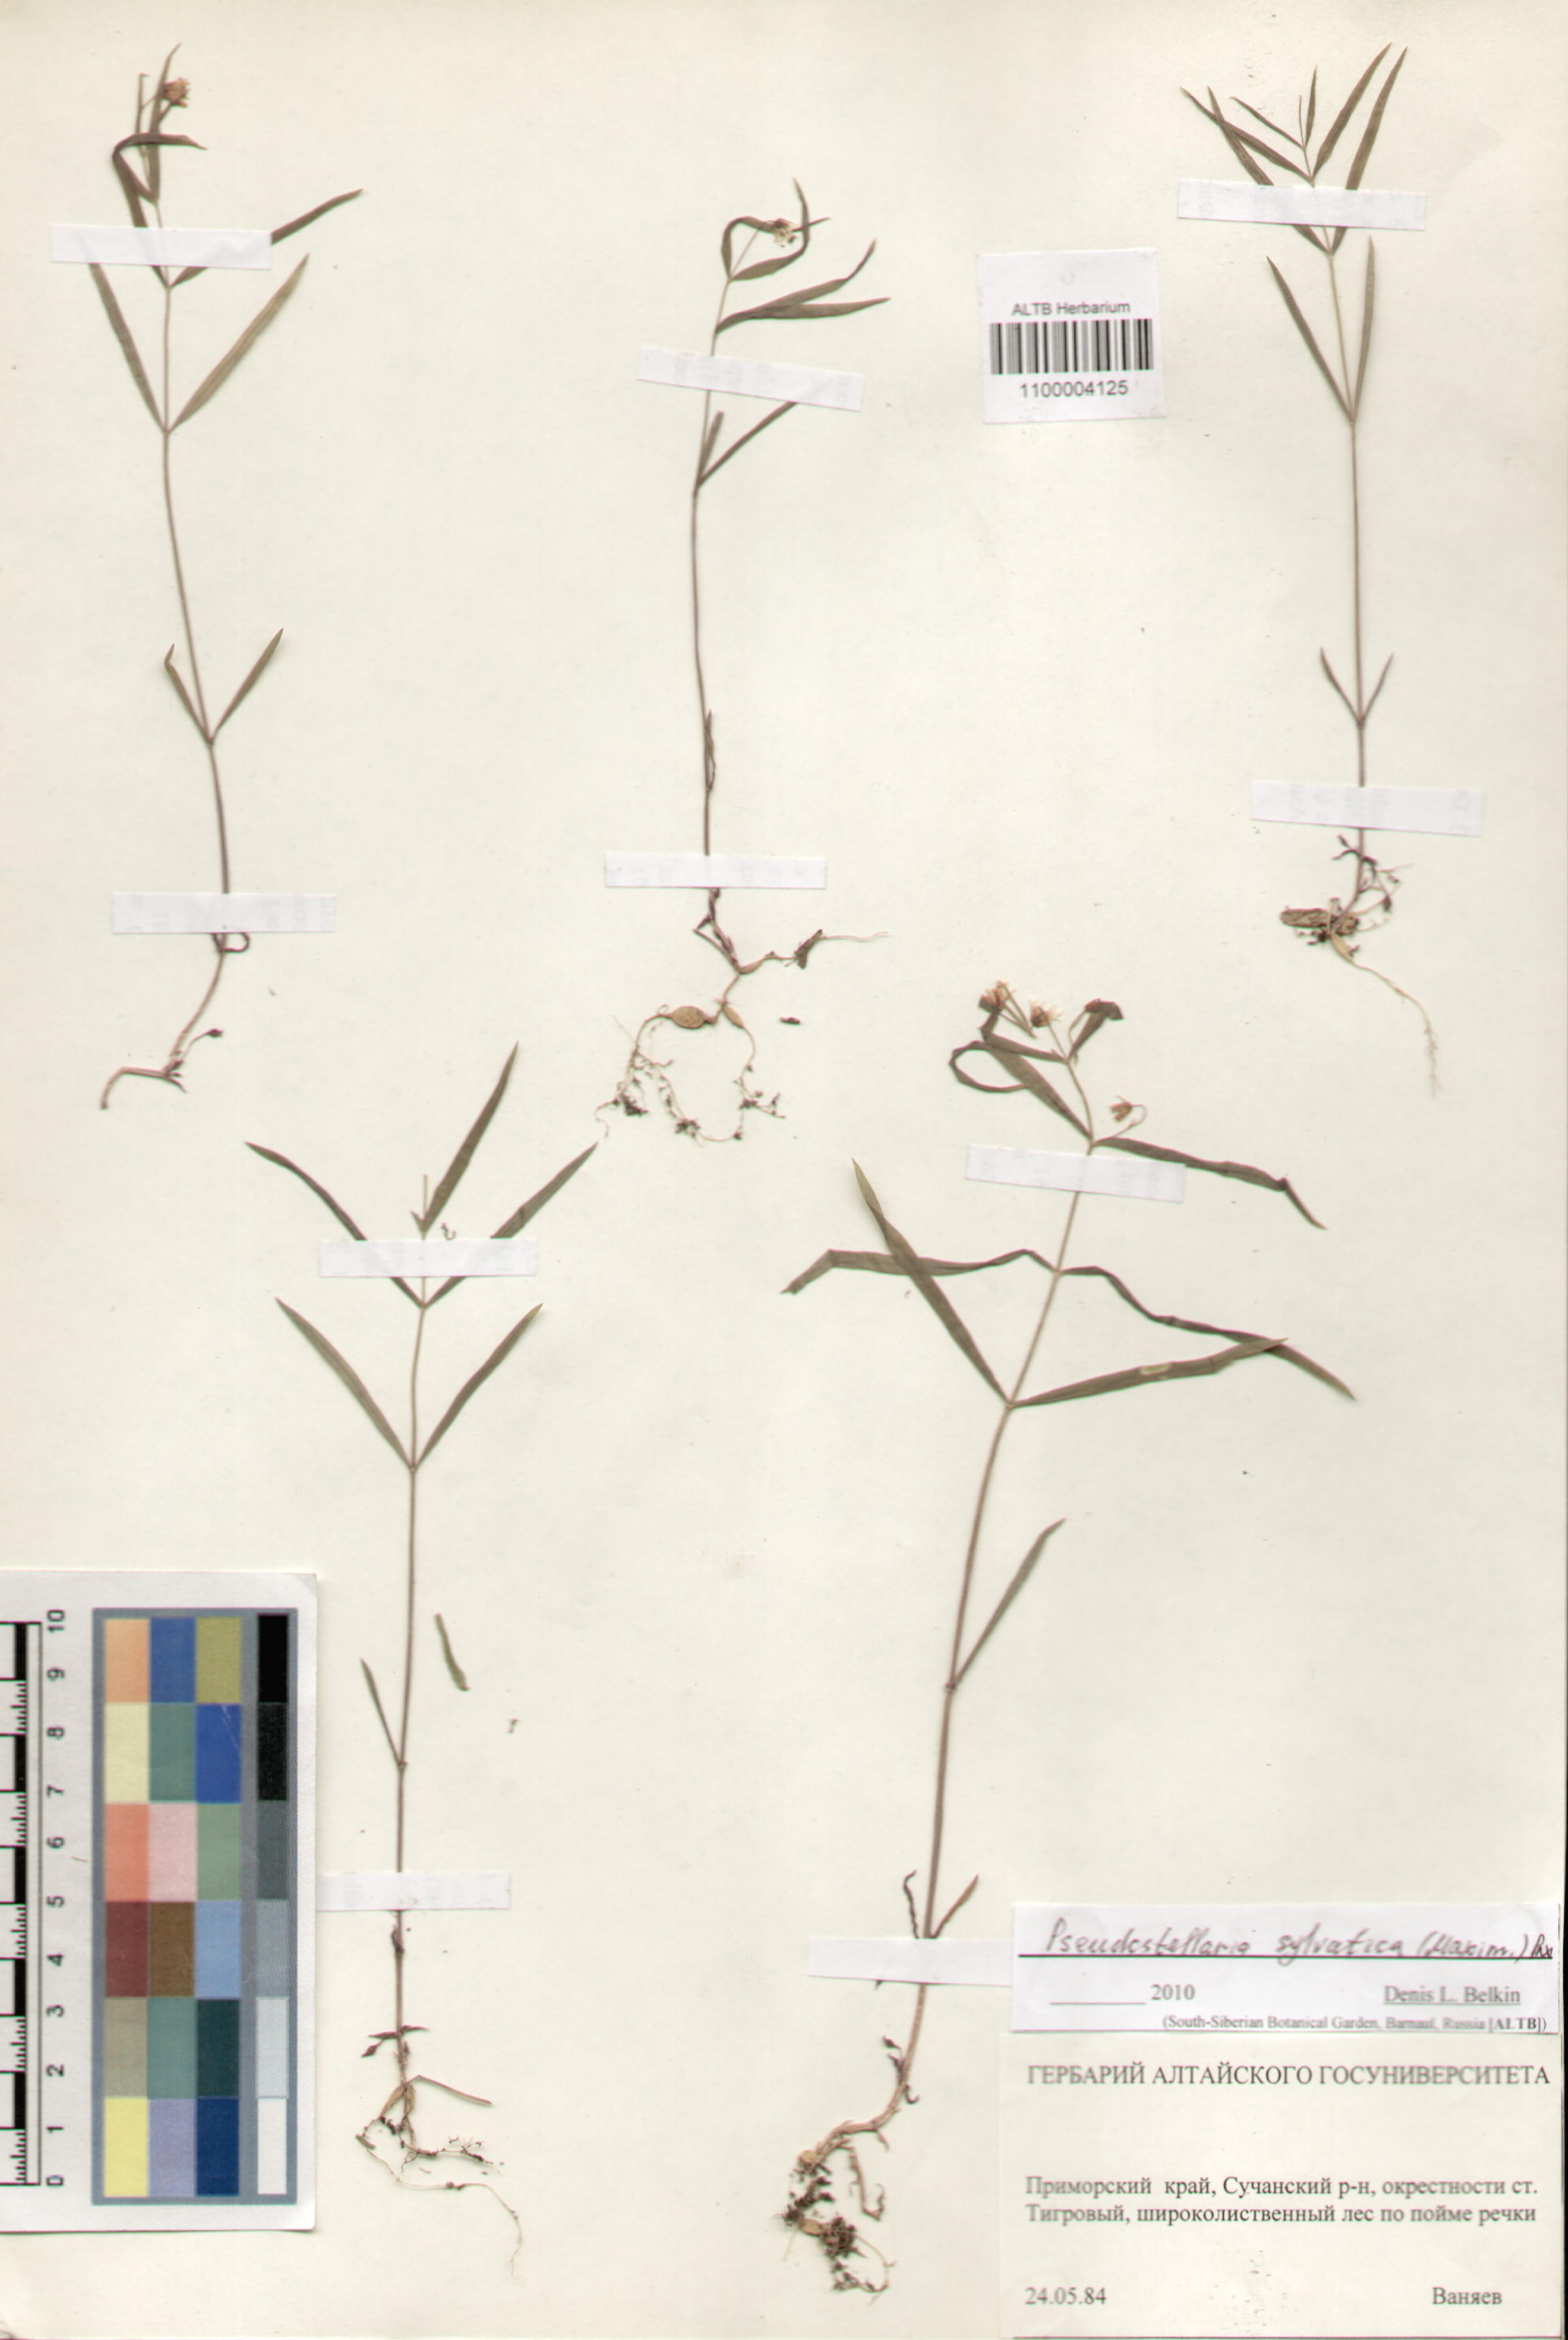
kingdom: Plantae
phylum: Tracheophyta
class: Magnoliopsida
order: Caryophyllales
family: Caryophyllaceae
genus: Pseudostellaria
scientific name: Pseudostellaria sylvatica
